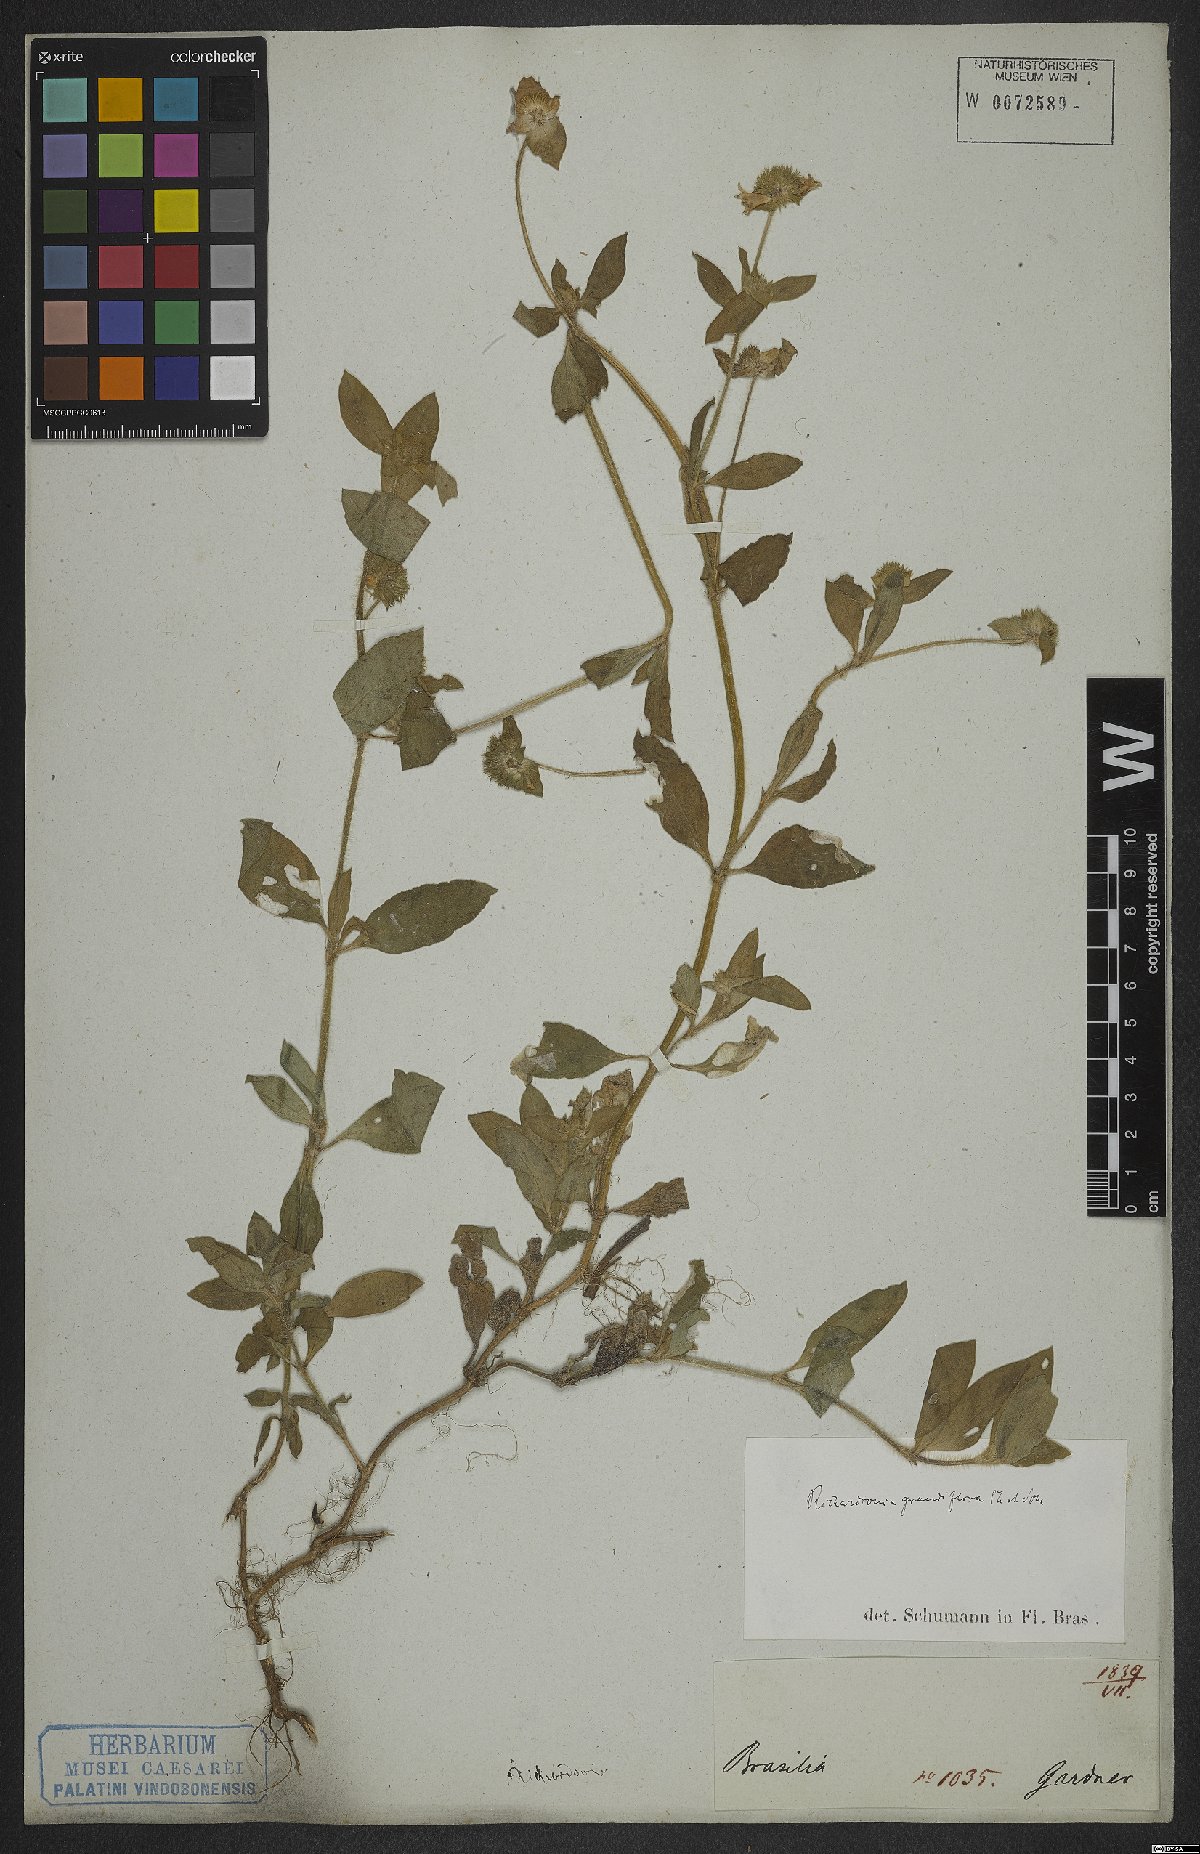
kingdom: Plantae
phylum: Tracheophyta
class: Magnoliopsida
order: Gentianales
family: Rubiaceae
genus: Richardia
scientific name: Richardia grandiflora
